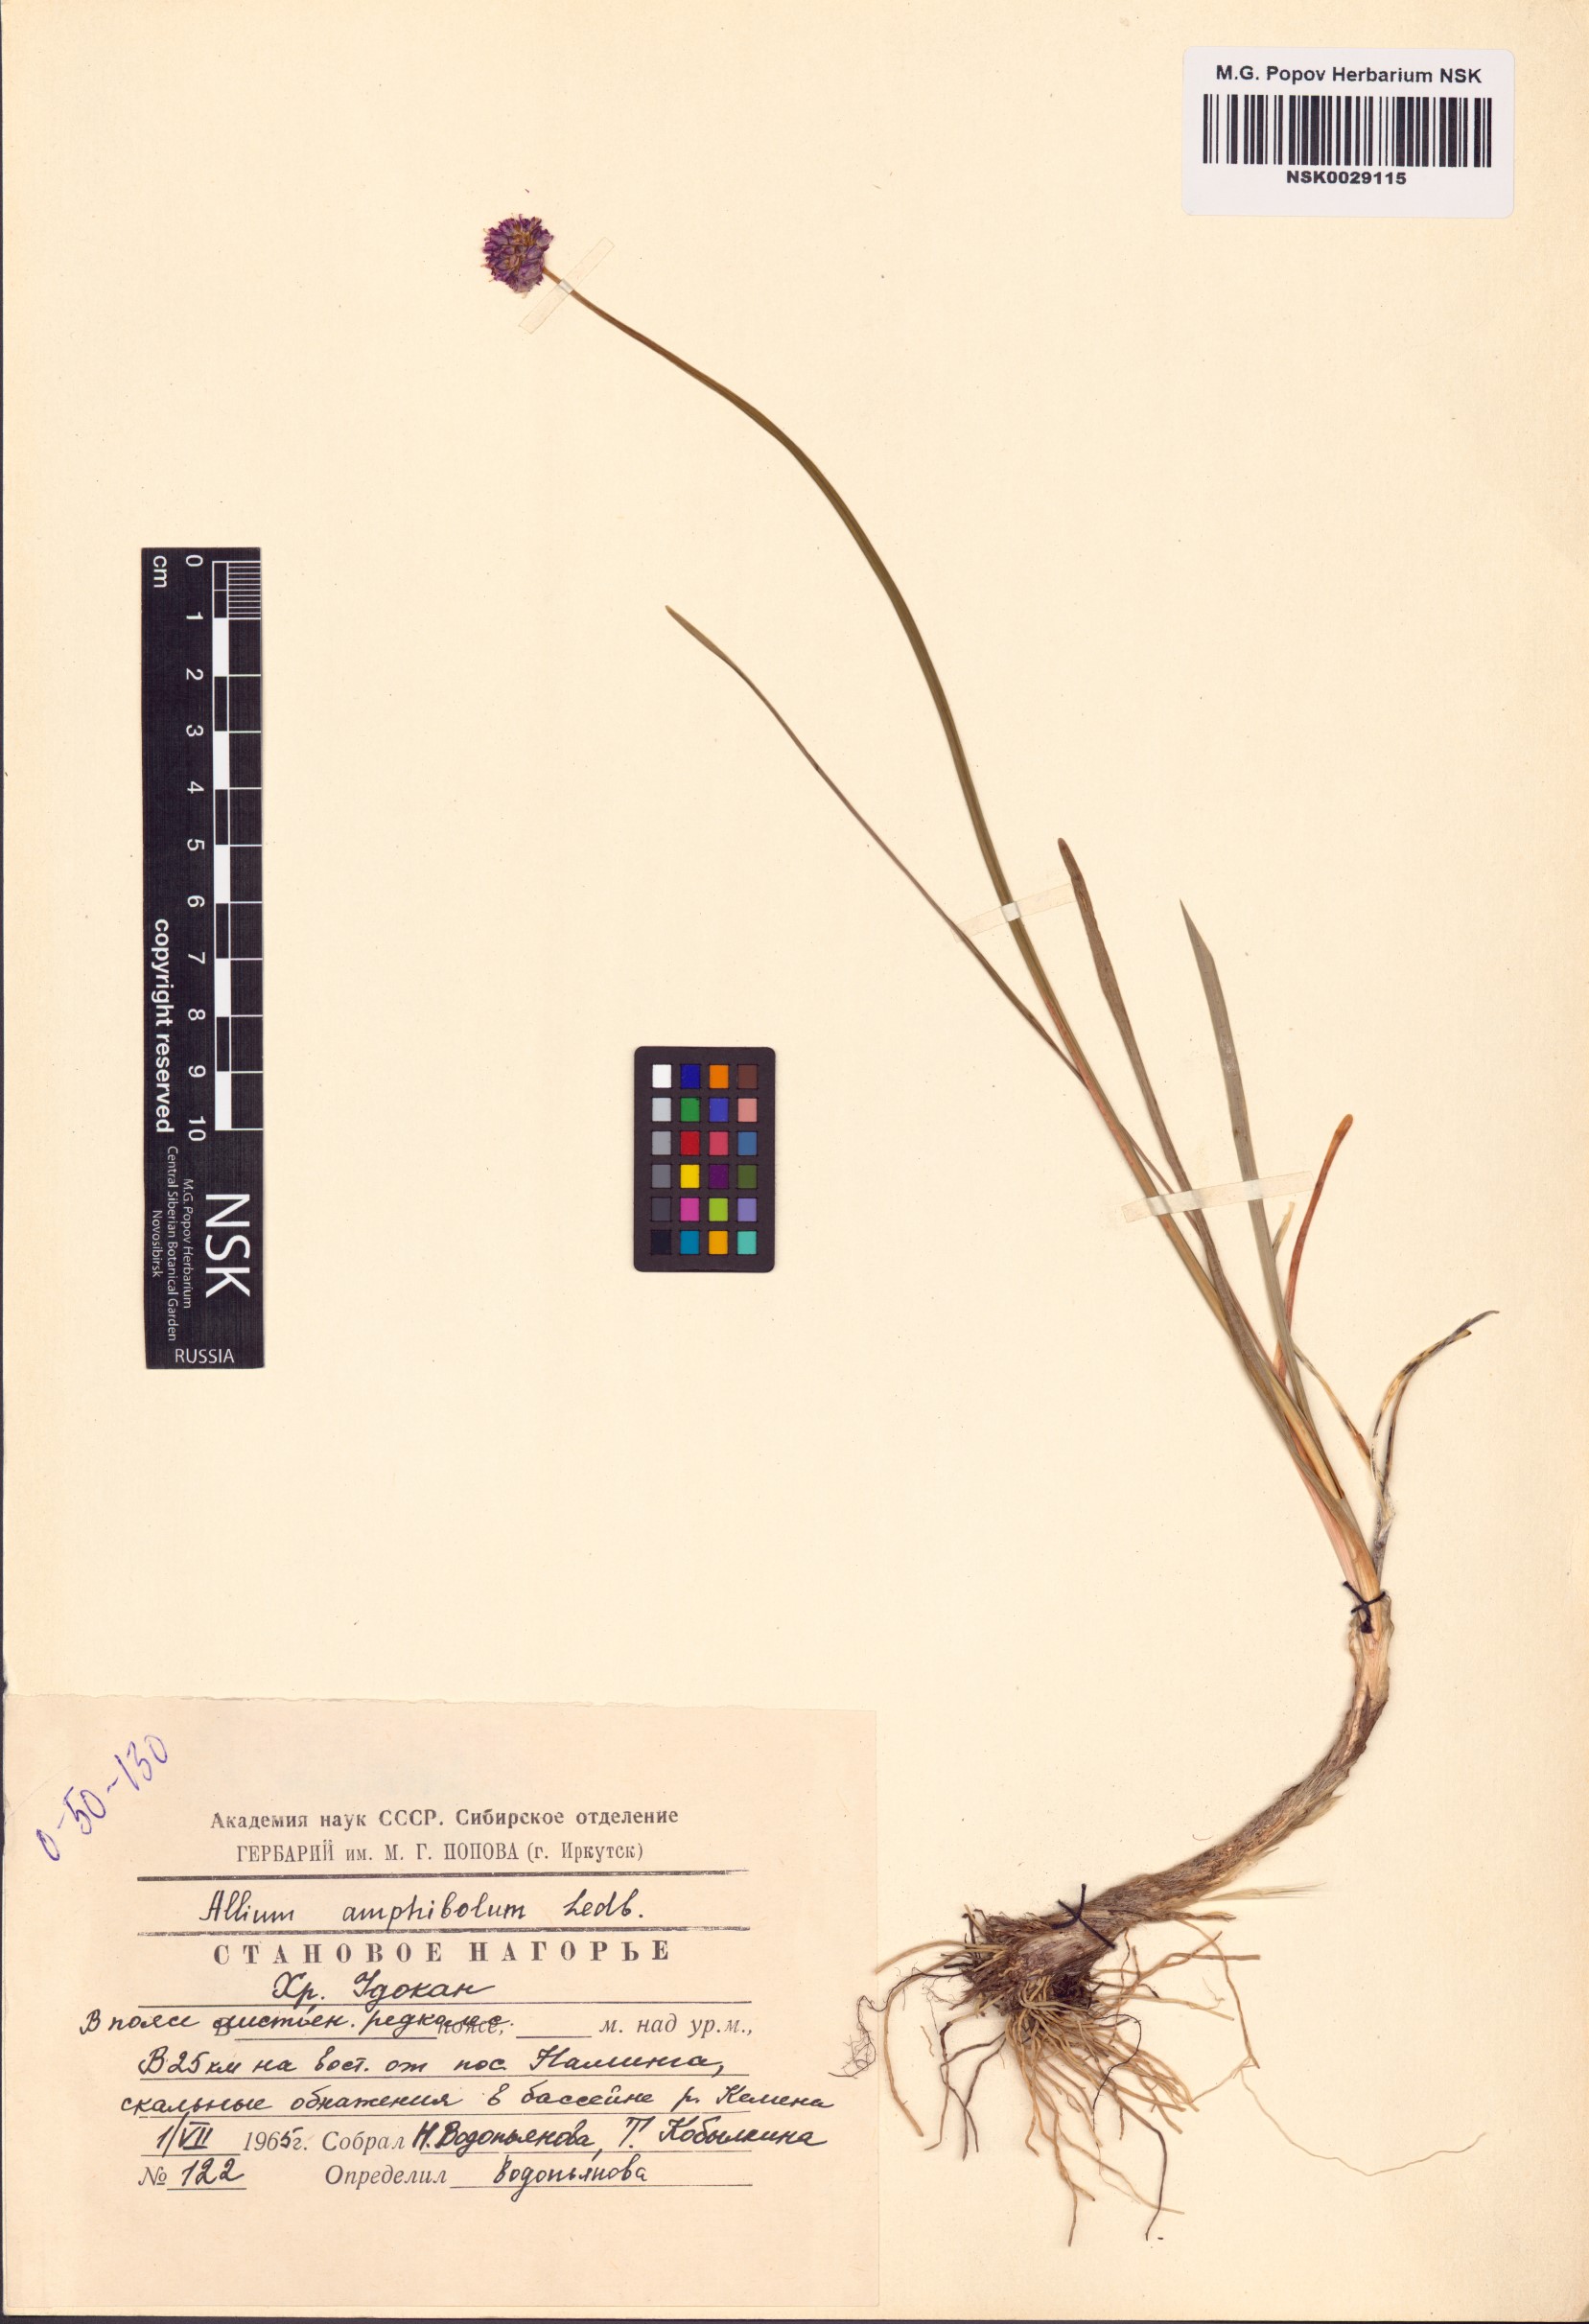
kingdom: Plantae
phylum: Tracheophyta
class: Liliopsida
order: Asparagales
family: Amaryllidaceae
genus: Allium
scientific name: Allium amphibolum
